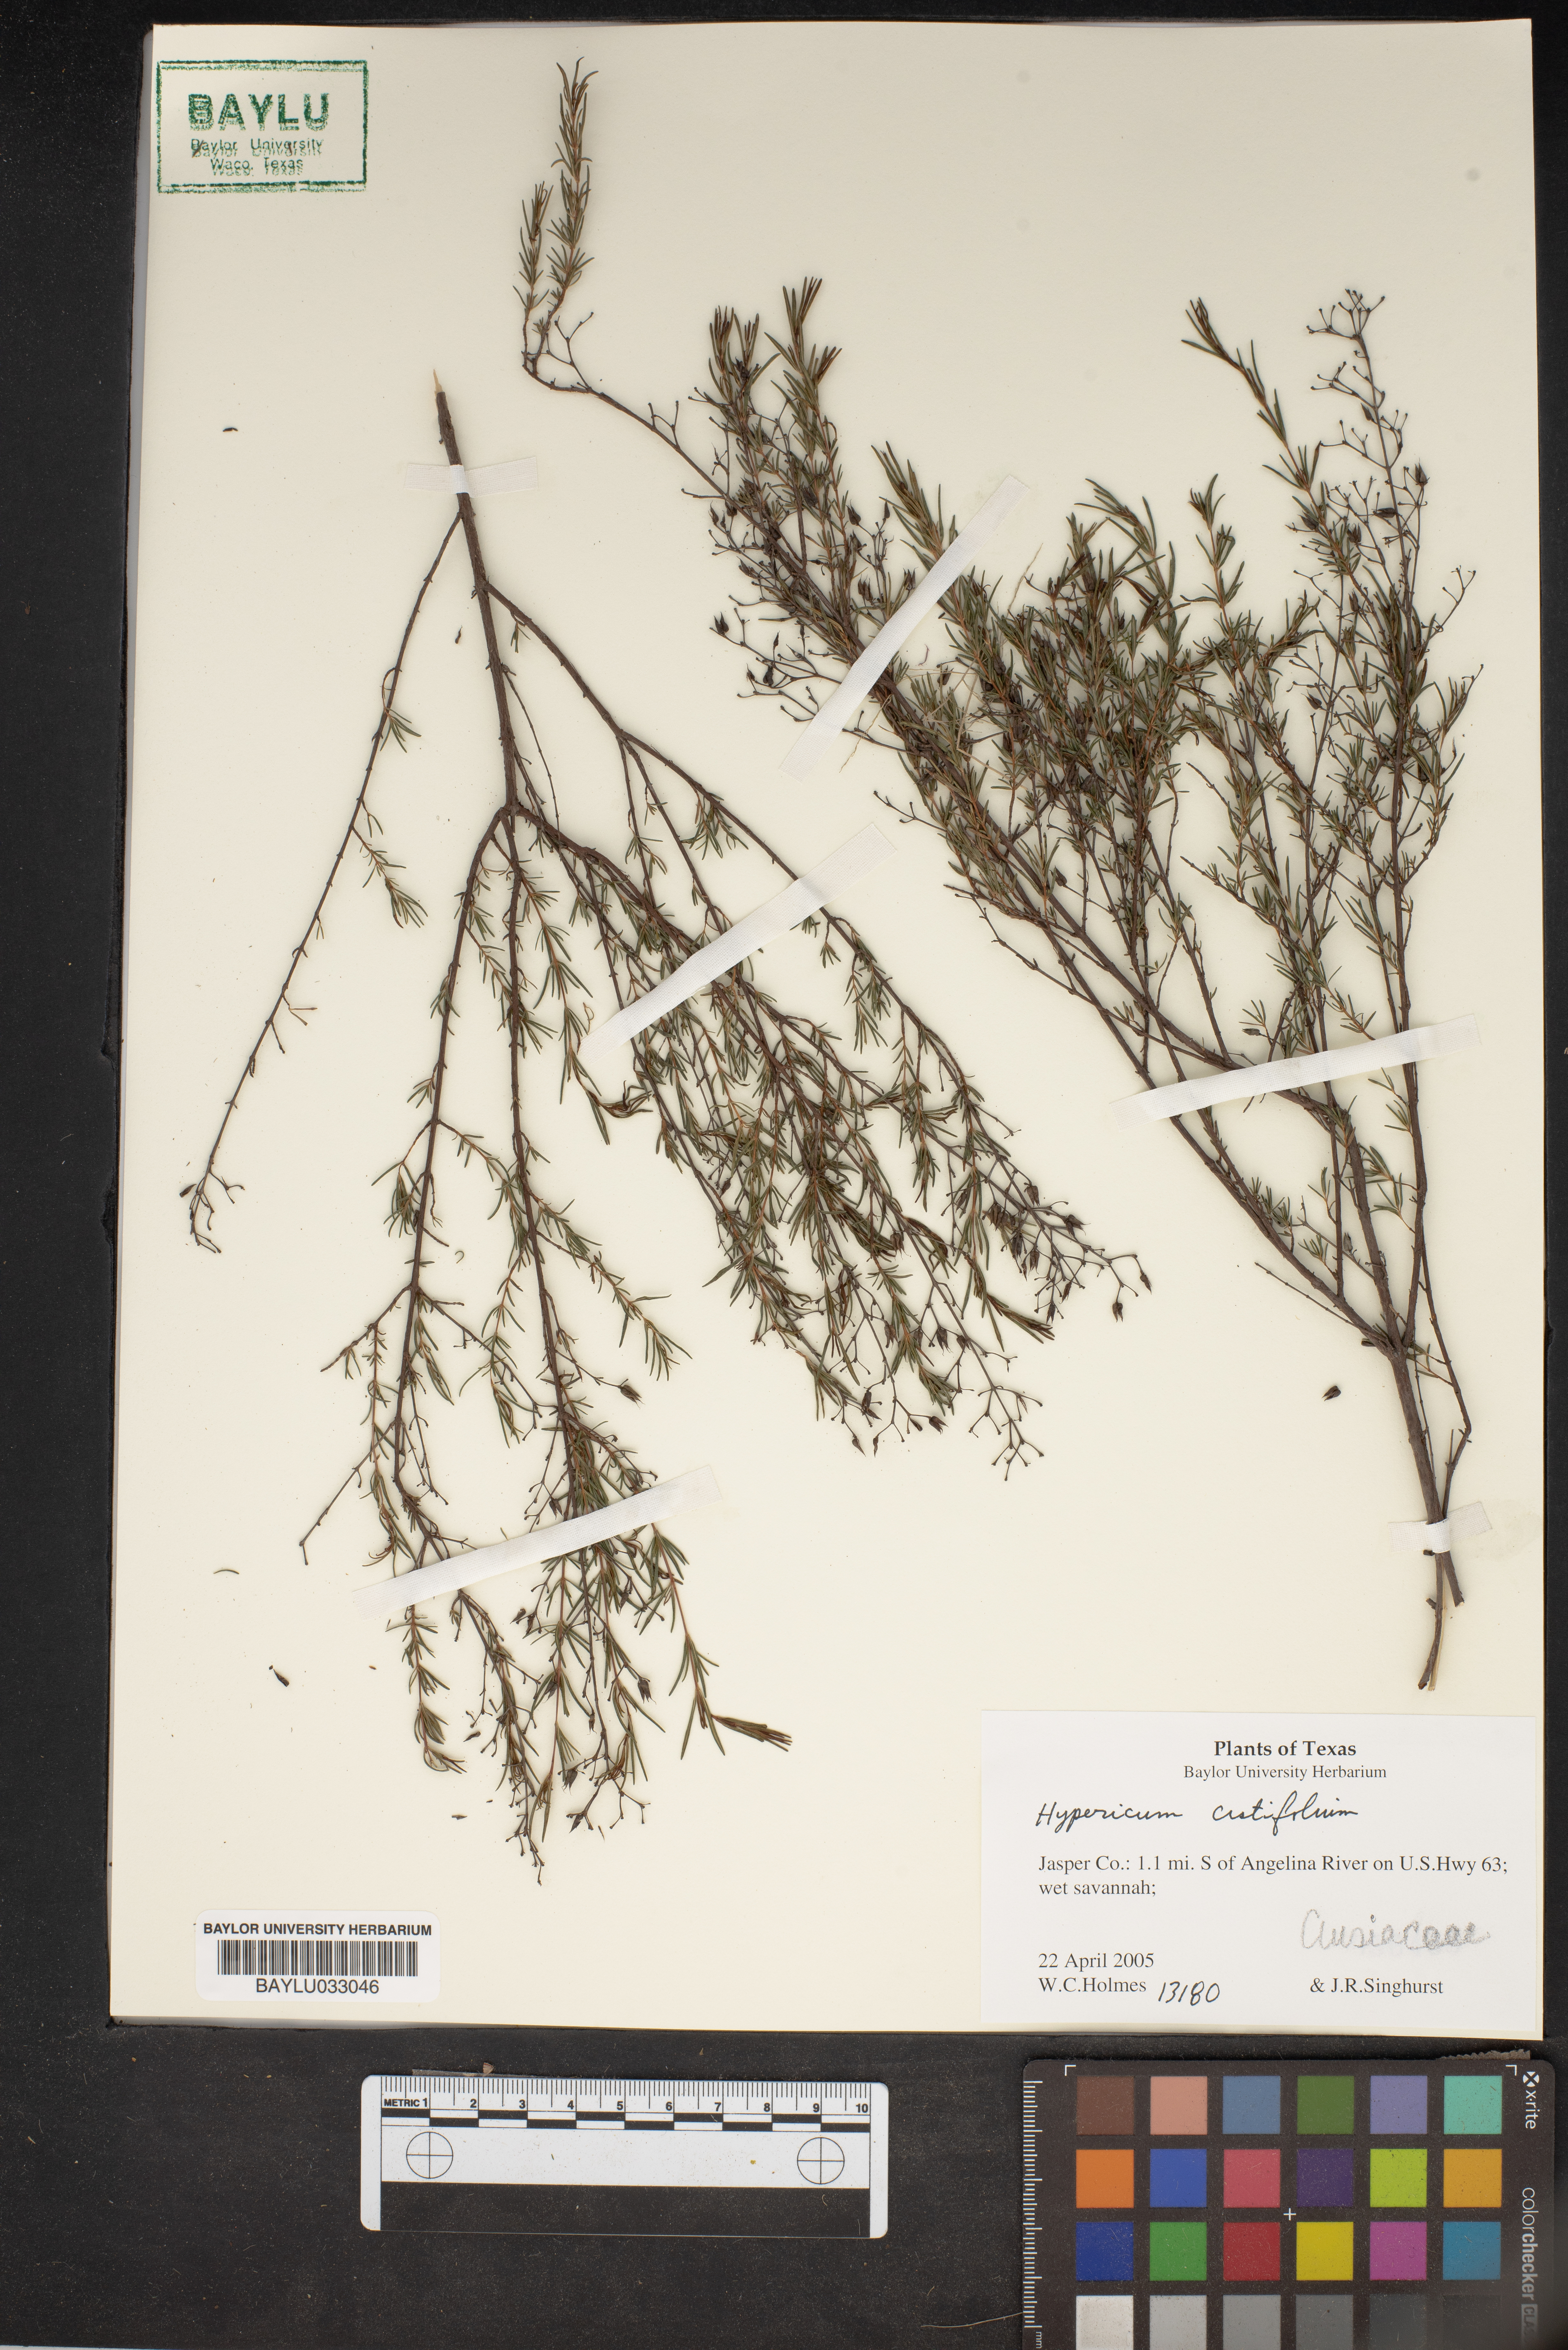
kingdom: Plantae
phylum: Tracheophyta
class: Magnoliopsida
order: Malpighiales
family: Hypericaceae
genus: Hypericum
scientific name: Hypericum cistifolium
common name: Round-pod st. john's-wort
